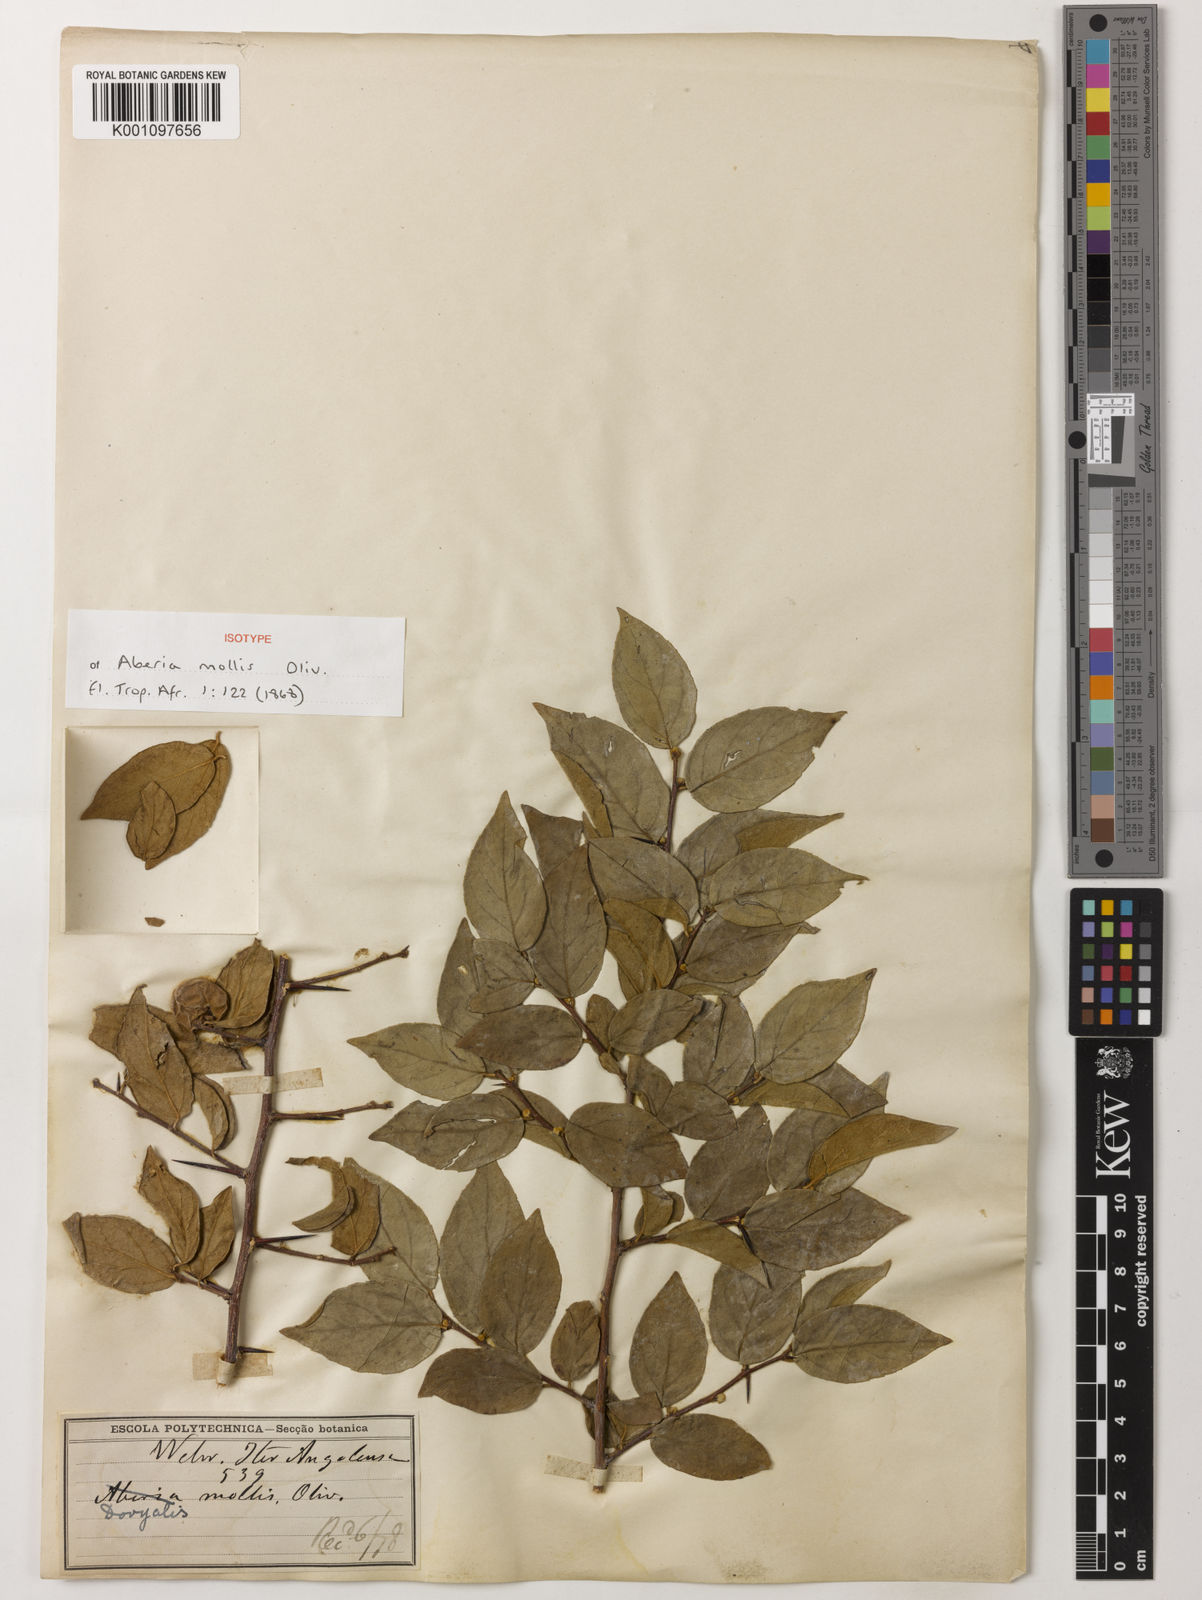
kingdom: Plantae
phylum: Tracheophyta
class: Magnoliopsida
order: Malpighiales
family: Salicaceae
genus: Dovyalis
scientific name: Dovyalis mollis
